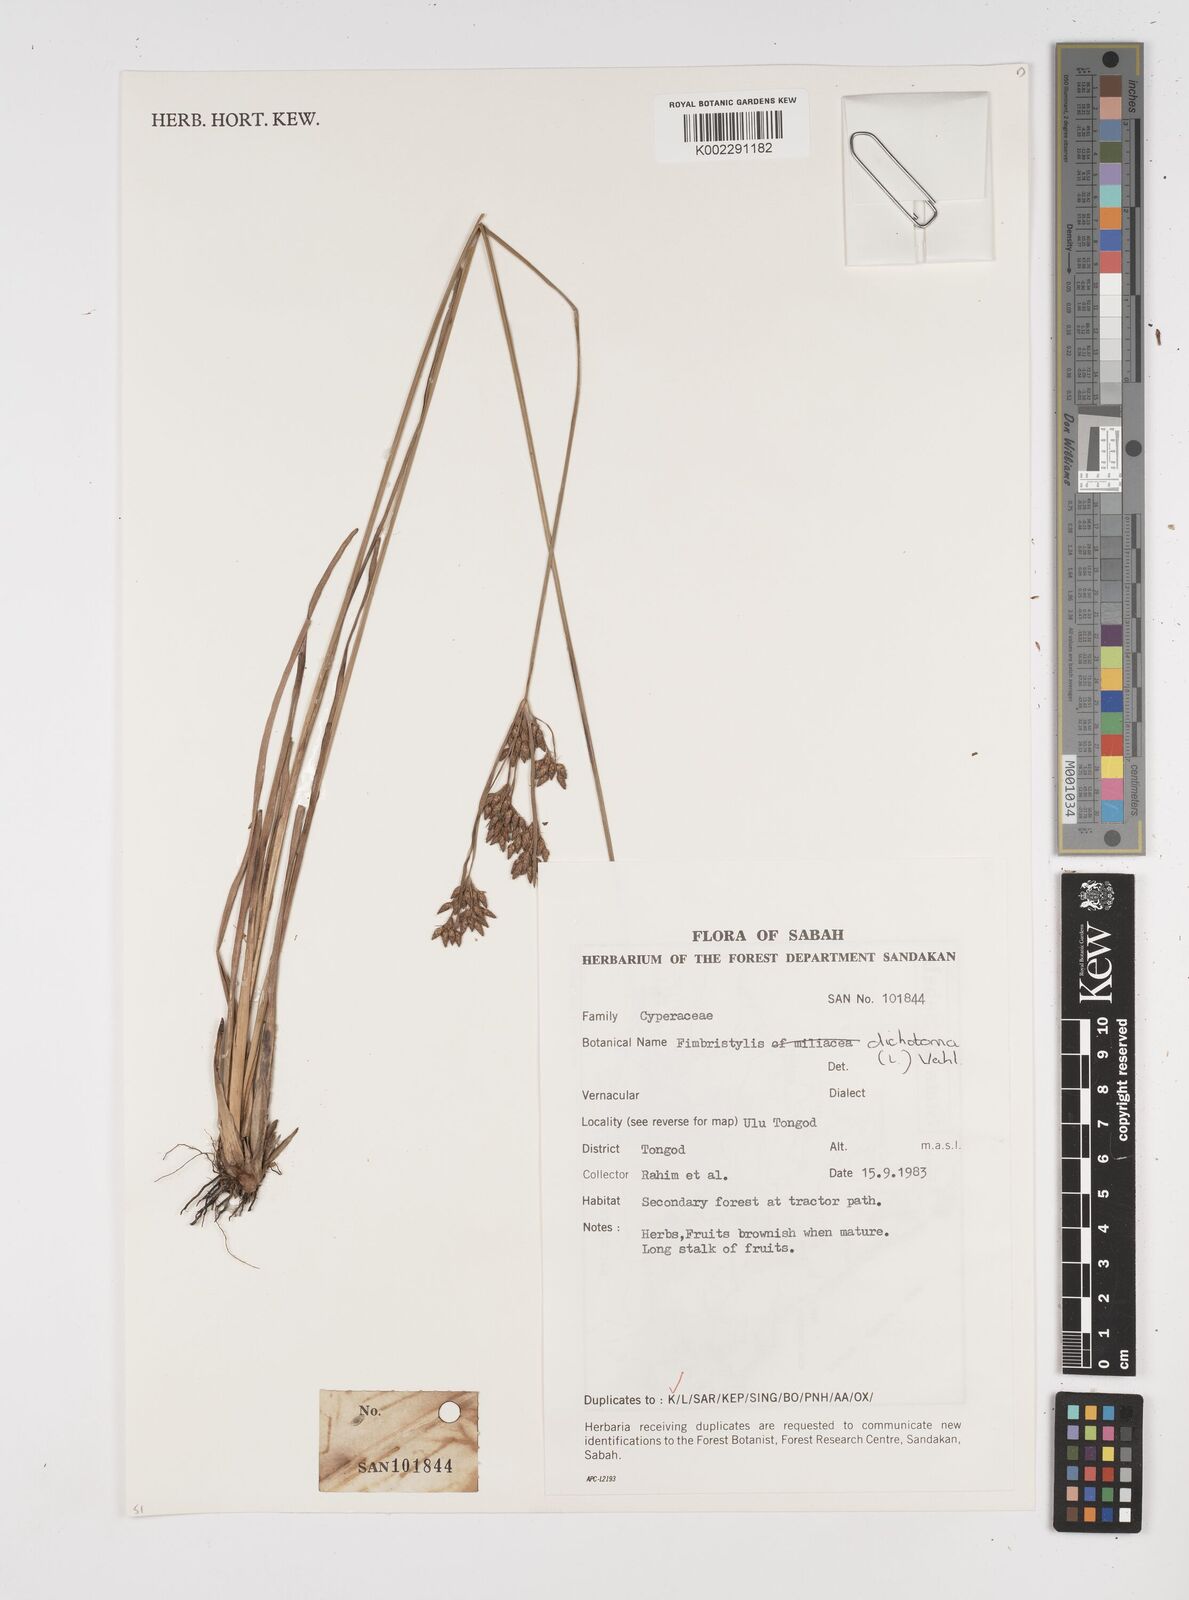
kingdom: Plantae
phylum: Tracheophyta
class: Liliopsida
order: Poales
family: Cyperaceae
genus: Fimbristylis
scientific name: Fimbristylis dichotoma
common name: Forked fimbry
